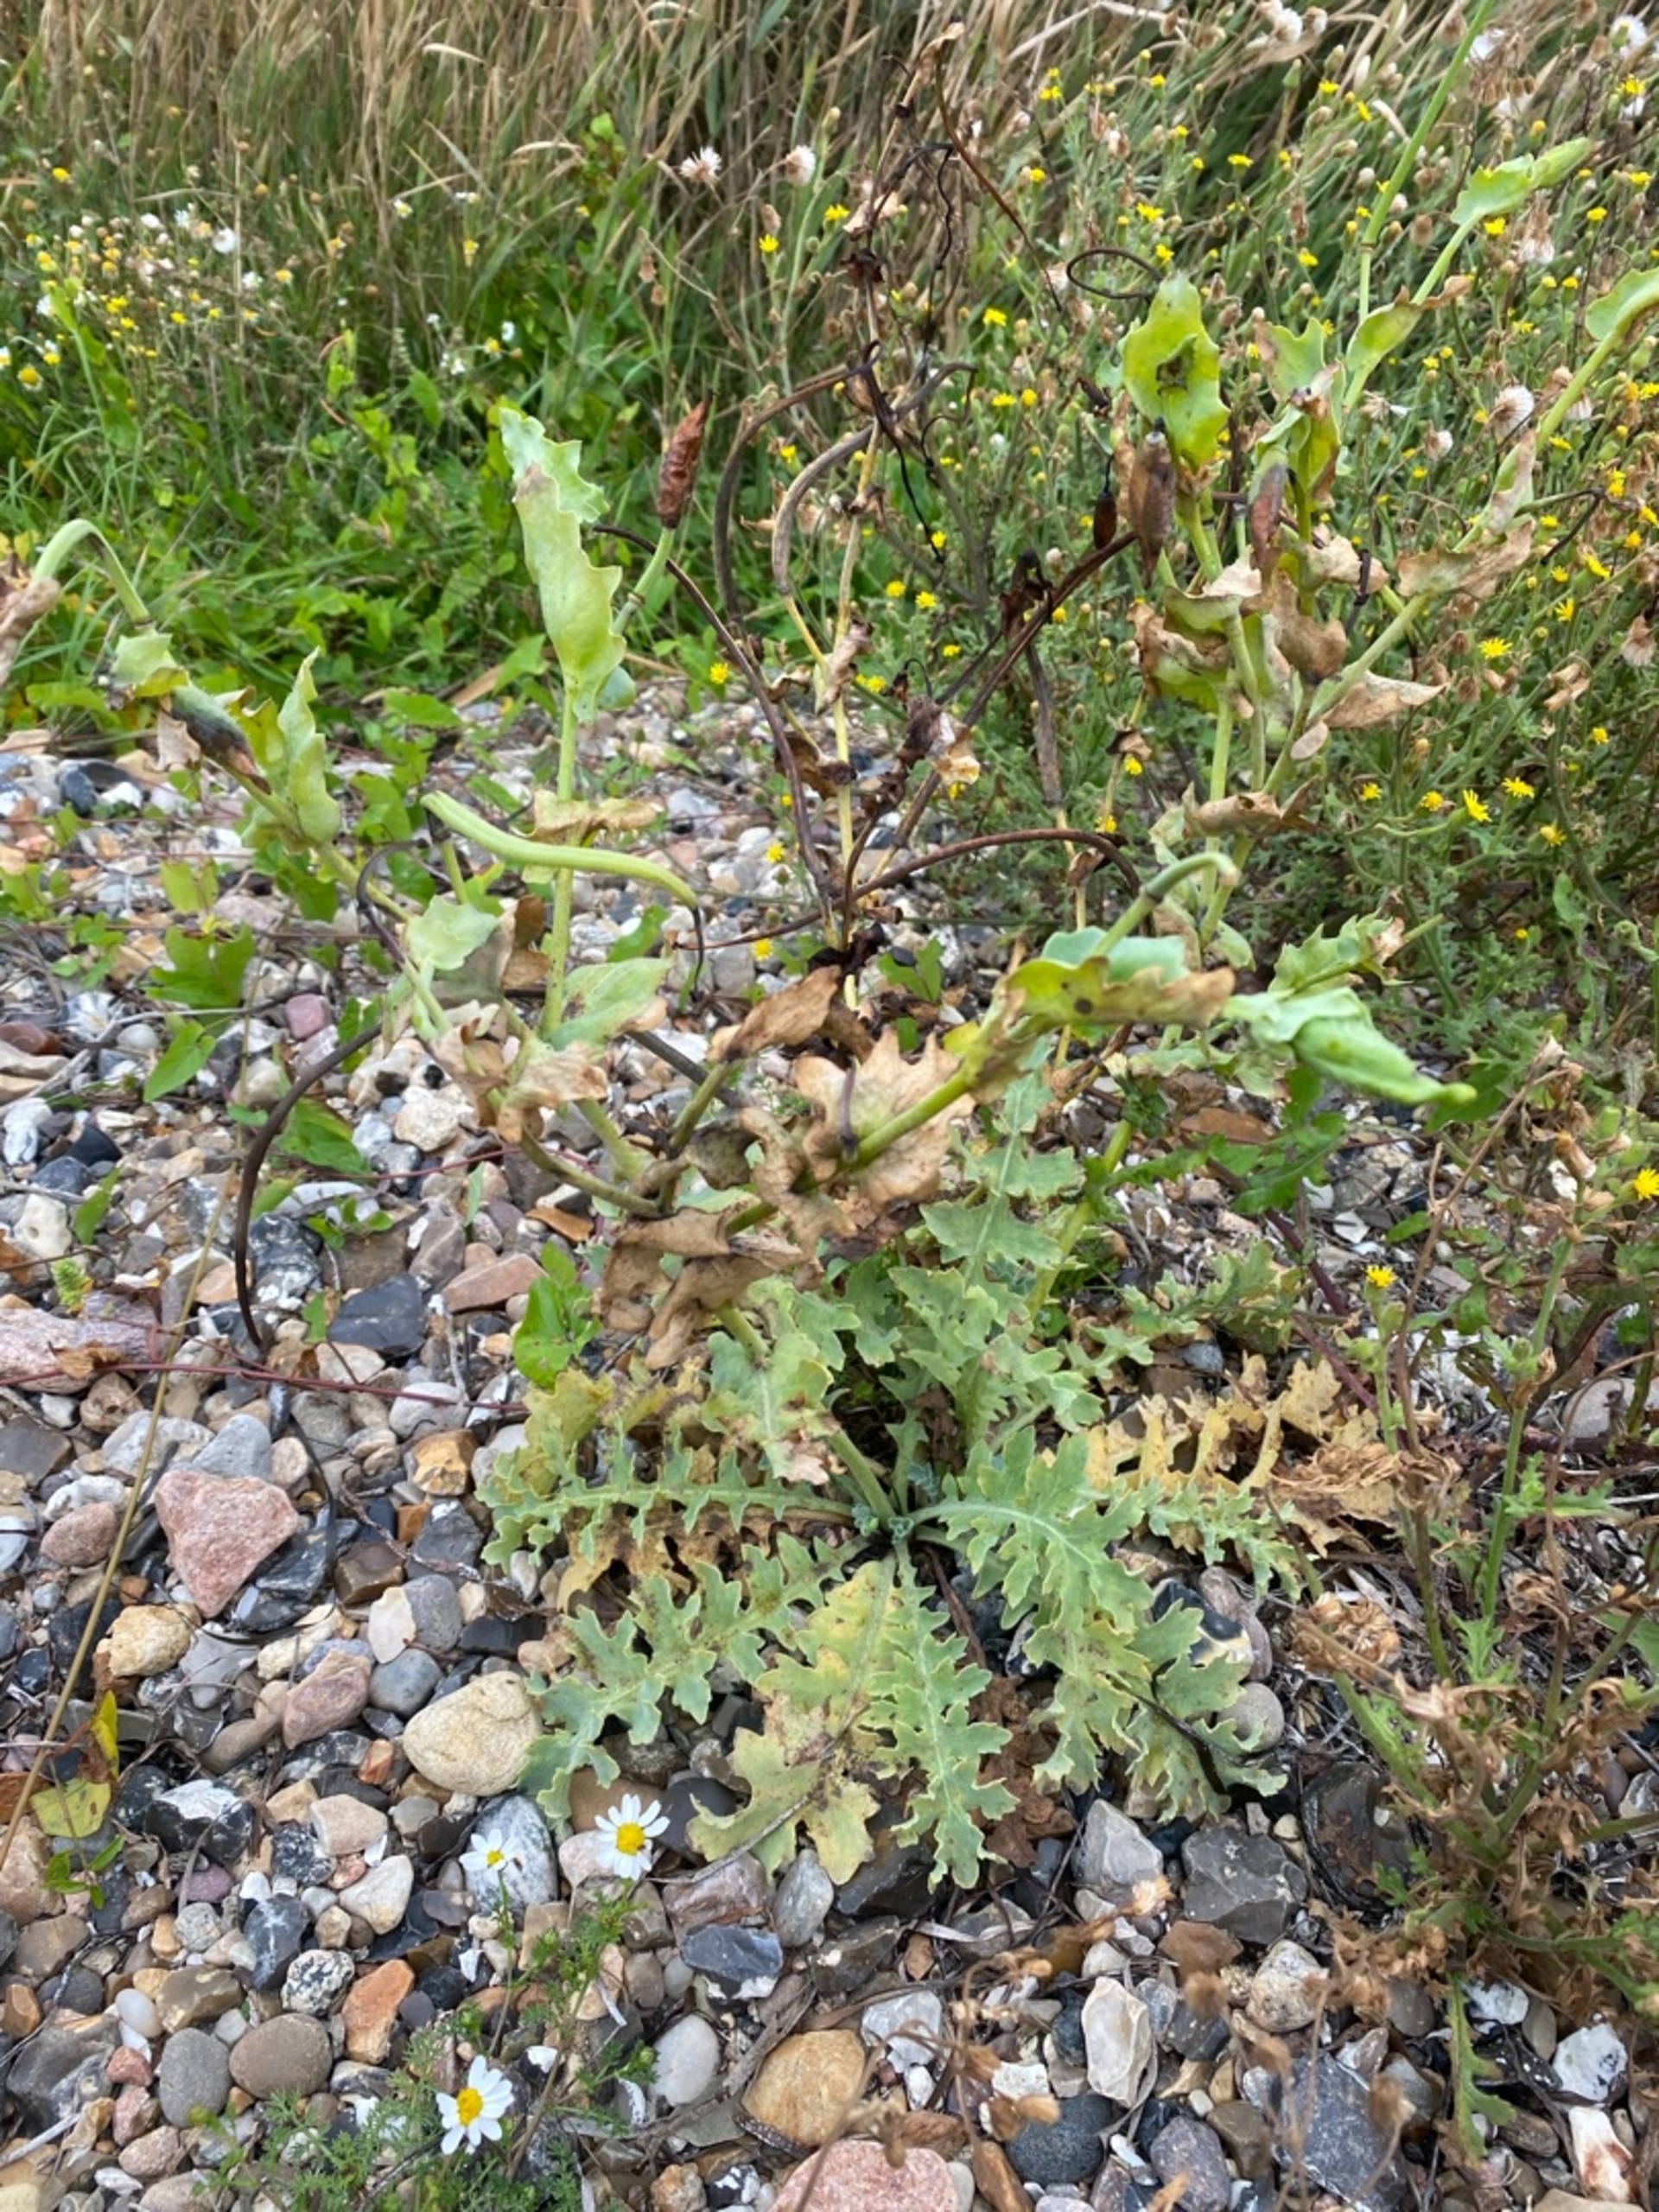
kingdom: Plantae
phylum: Tracheophyta
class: Magnoliopsida
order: Ranunculales
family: Papaveraceae
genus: Glaucium
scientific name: Glaucium flavum
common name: Hornskulpe
